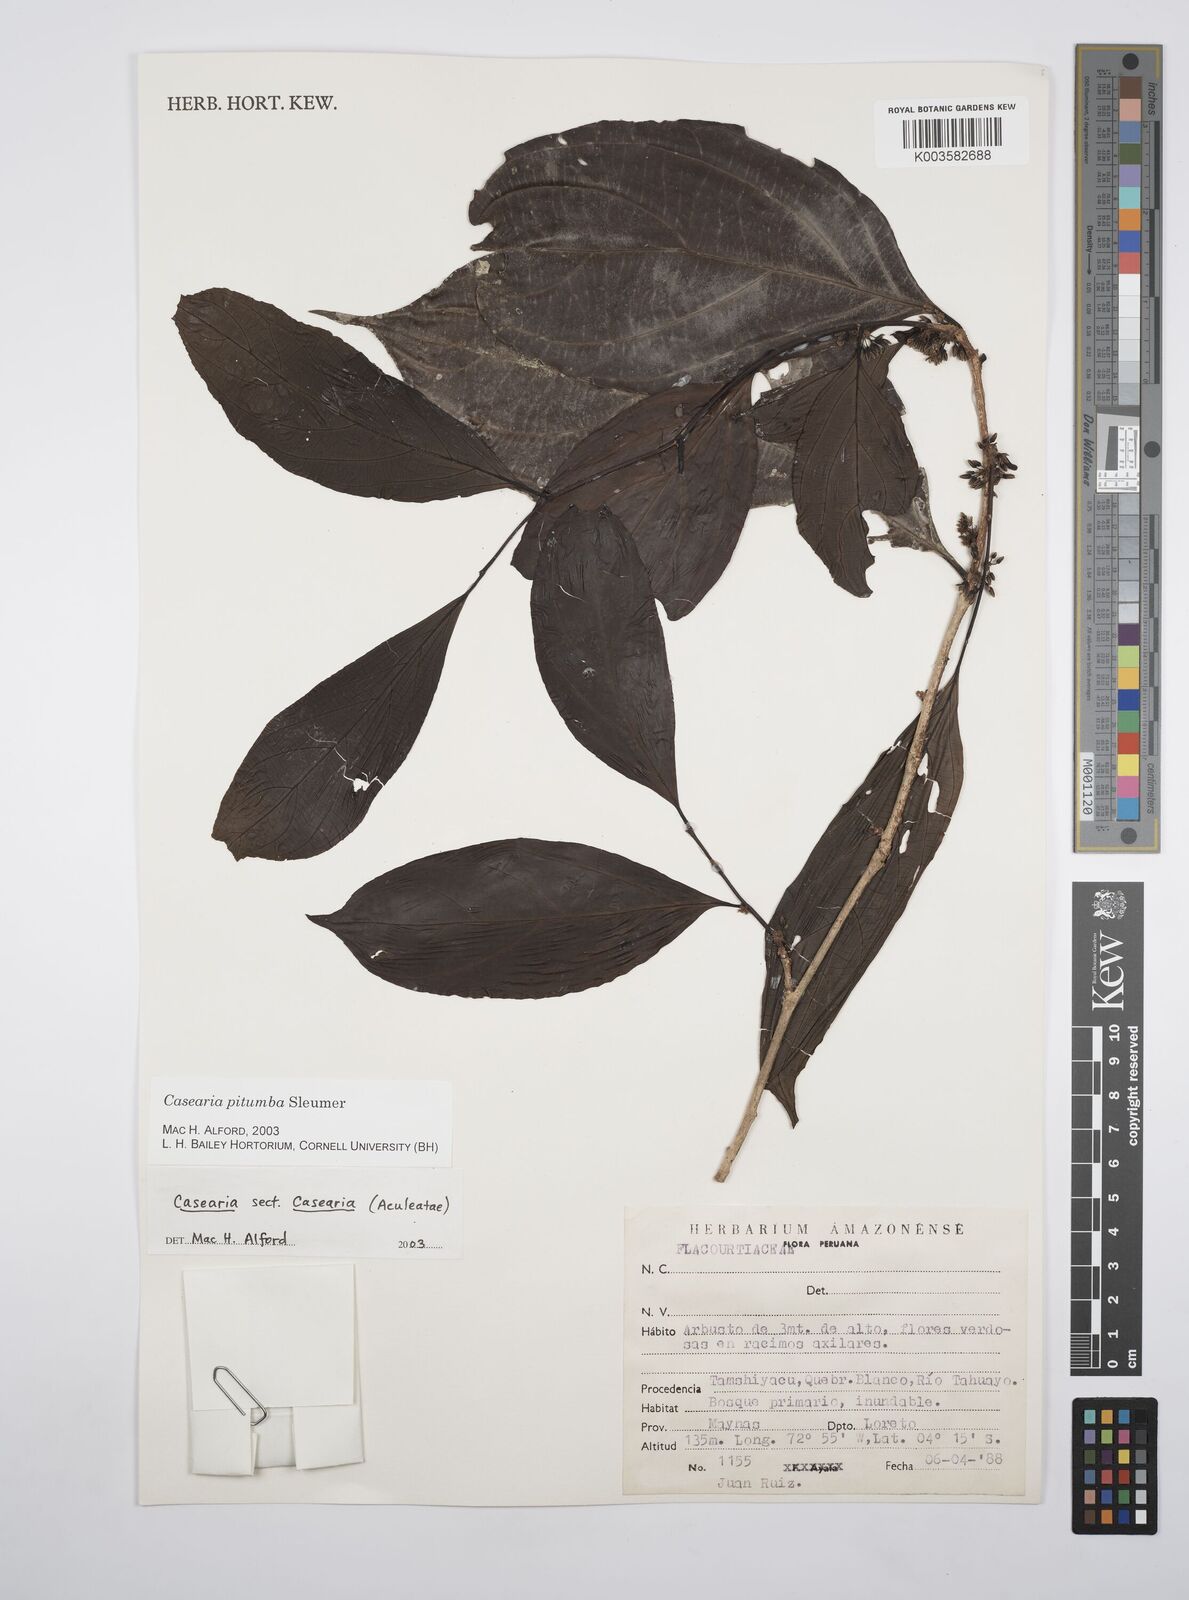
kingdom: Plantae
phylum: Tracheophyta
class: Magnoliopsida
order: Malpighiales
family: Salicaceae
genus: Casearia
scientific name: Casearia pitumba
